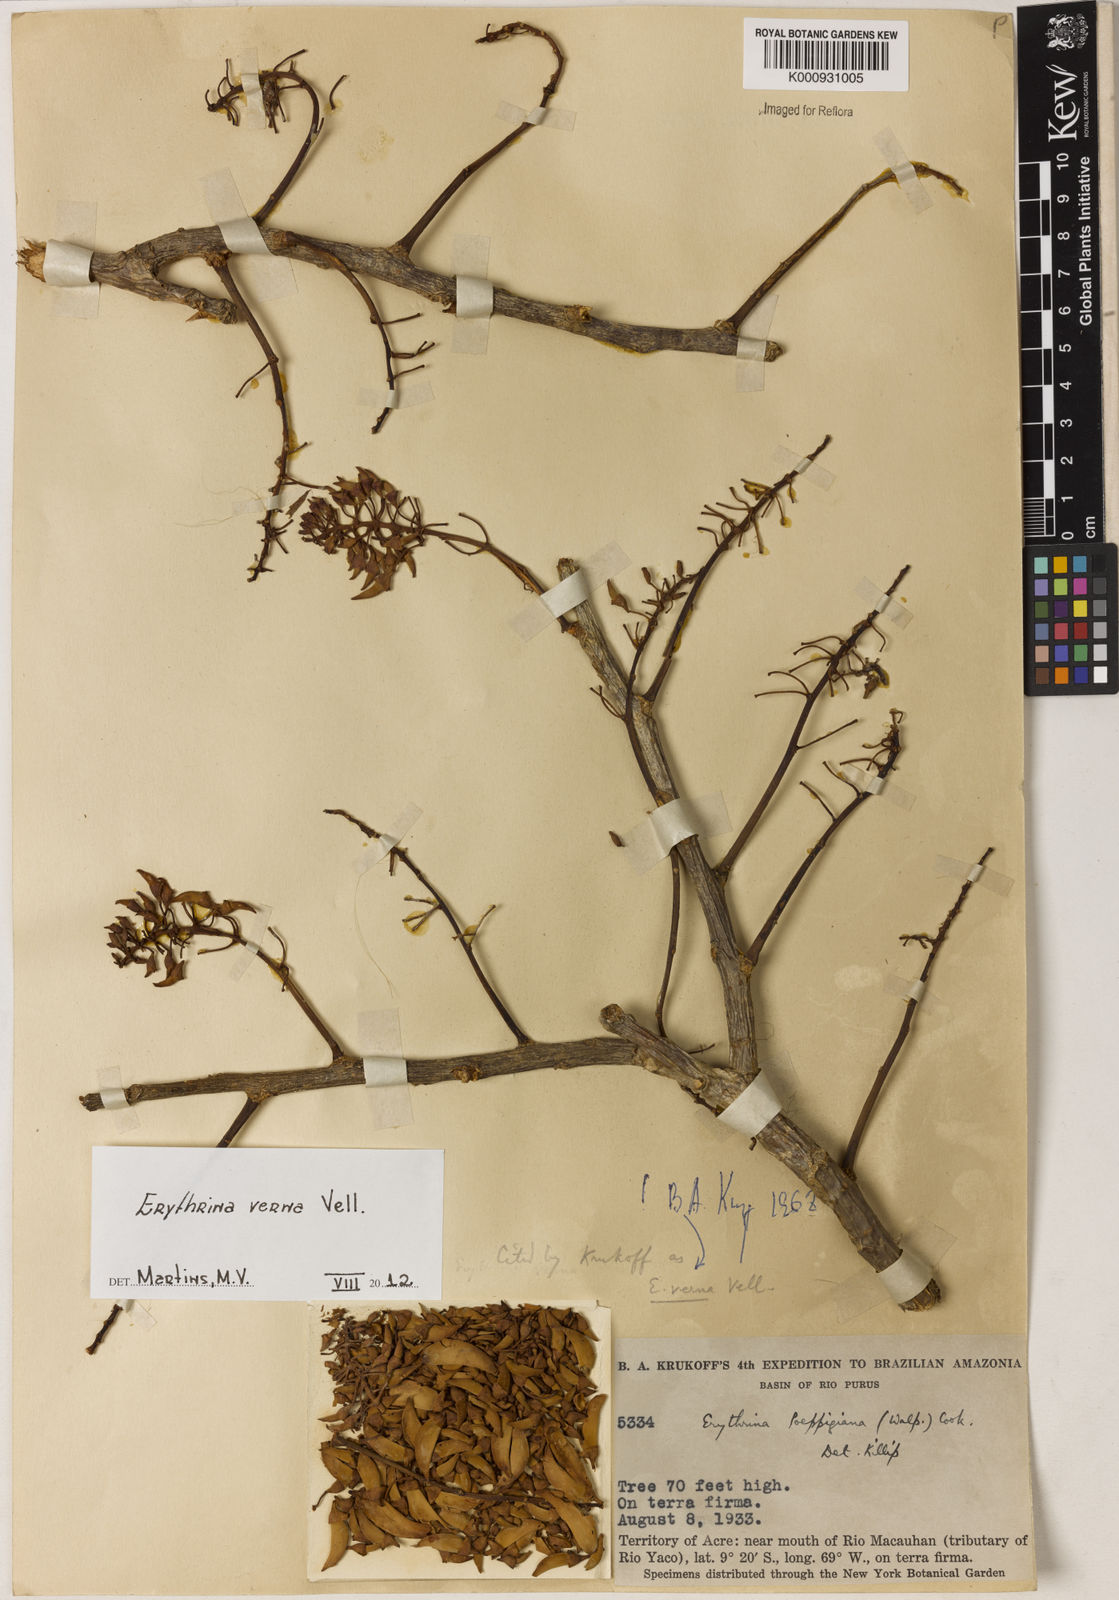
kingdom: Plantae
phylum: Tracheophyta
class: Magnoliopsida
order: Fabales
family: Fabaceae
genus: Erythrina
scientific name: Erythrina verna
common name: Mulungú
